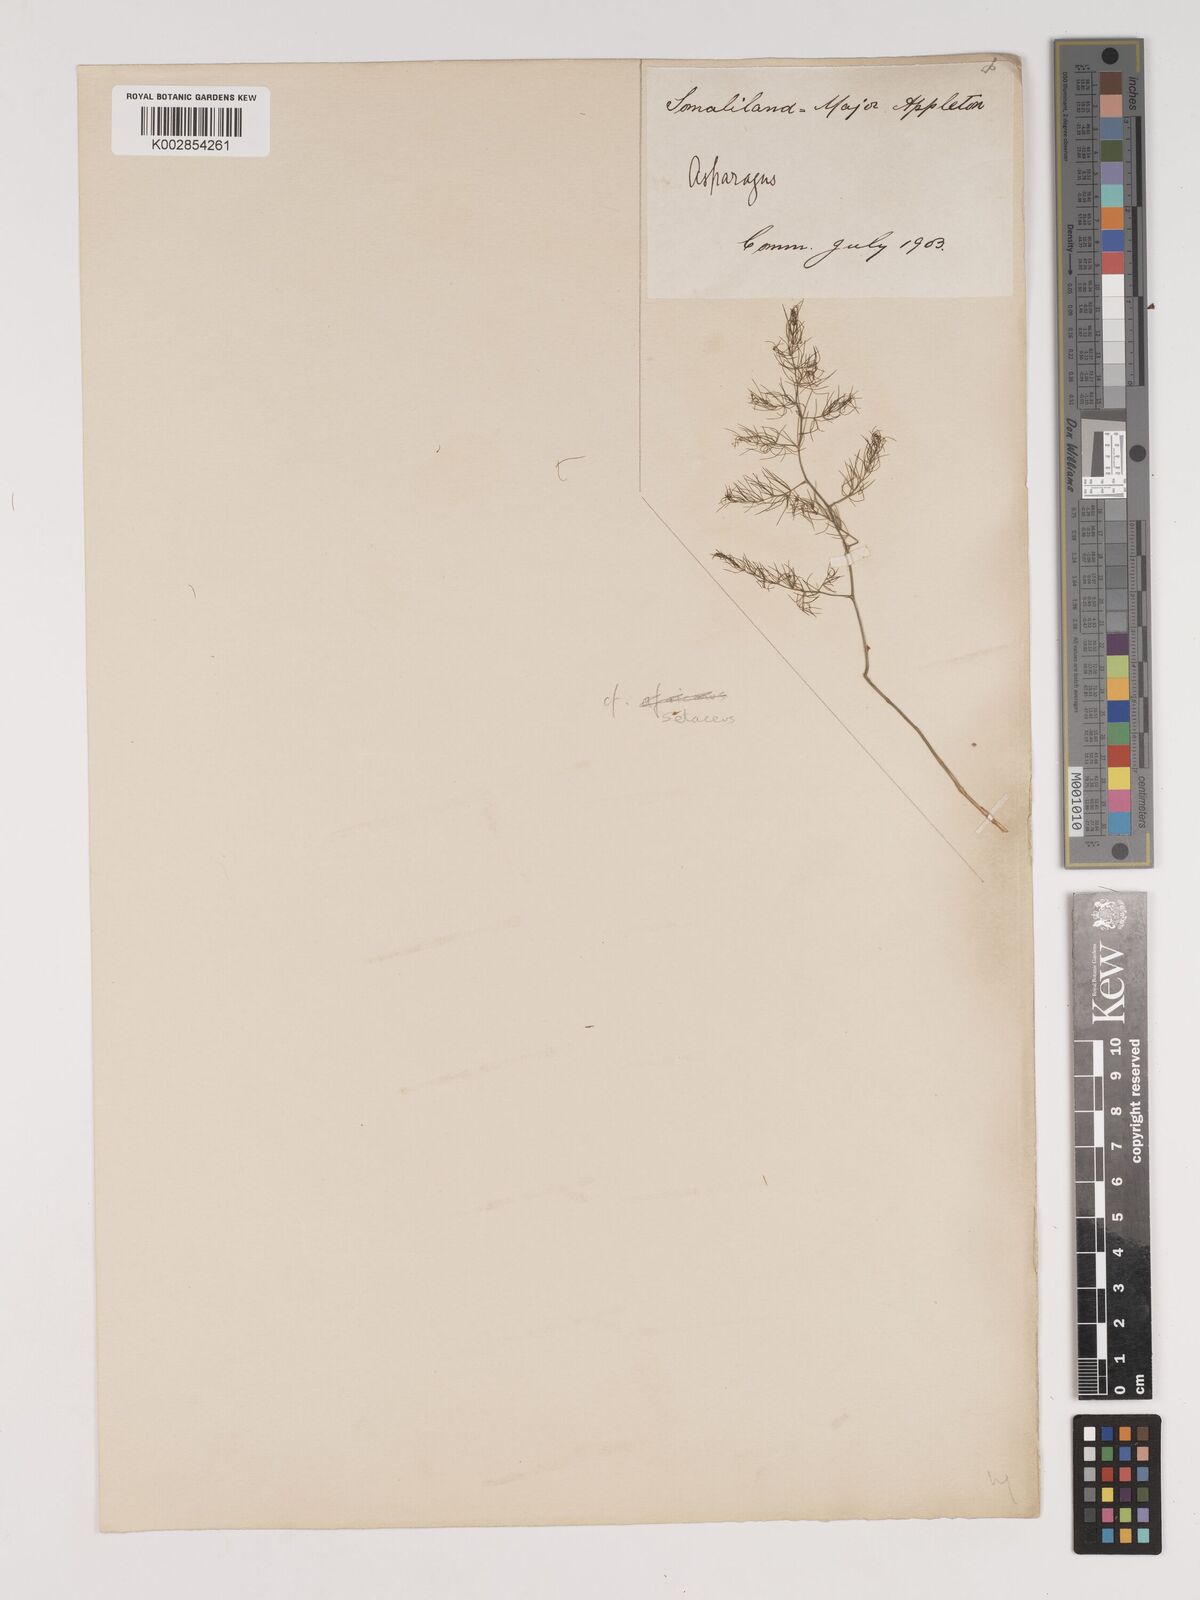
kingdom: Plantae
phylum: Tracheophyta
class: Liliopsida
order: Asparagales
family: Asparagaceae
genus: Asparagus
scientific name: Asparagus setaceus
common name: Common asparagus fern
